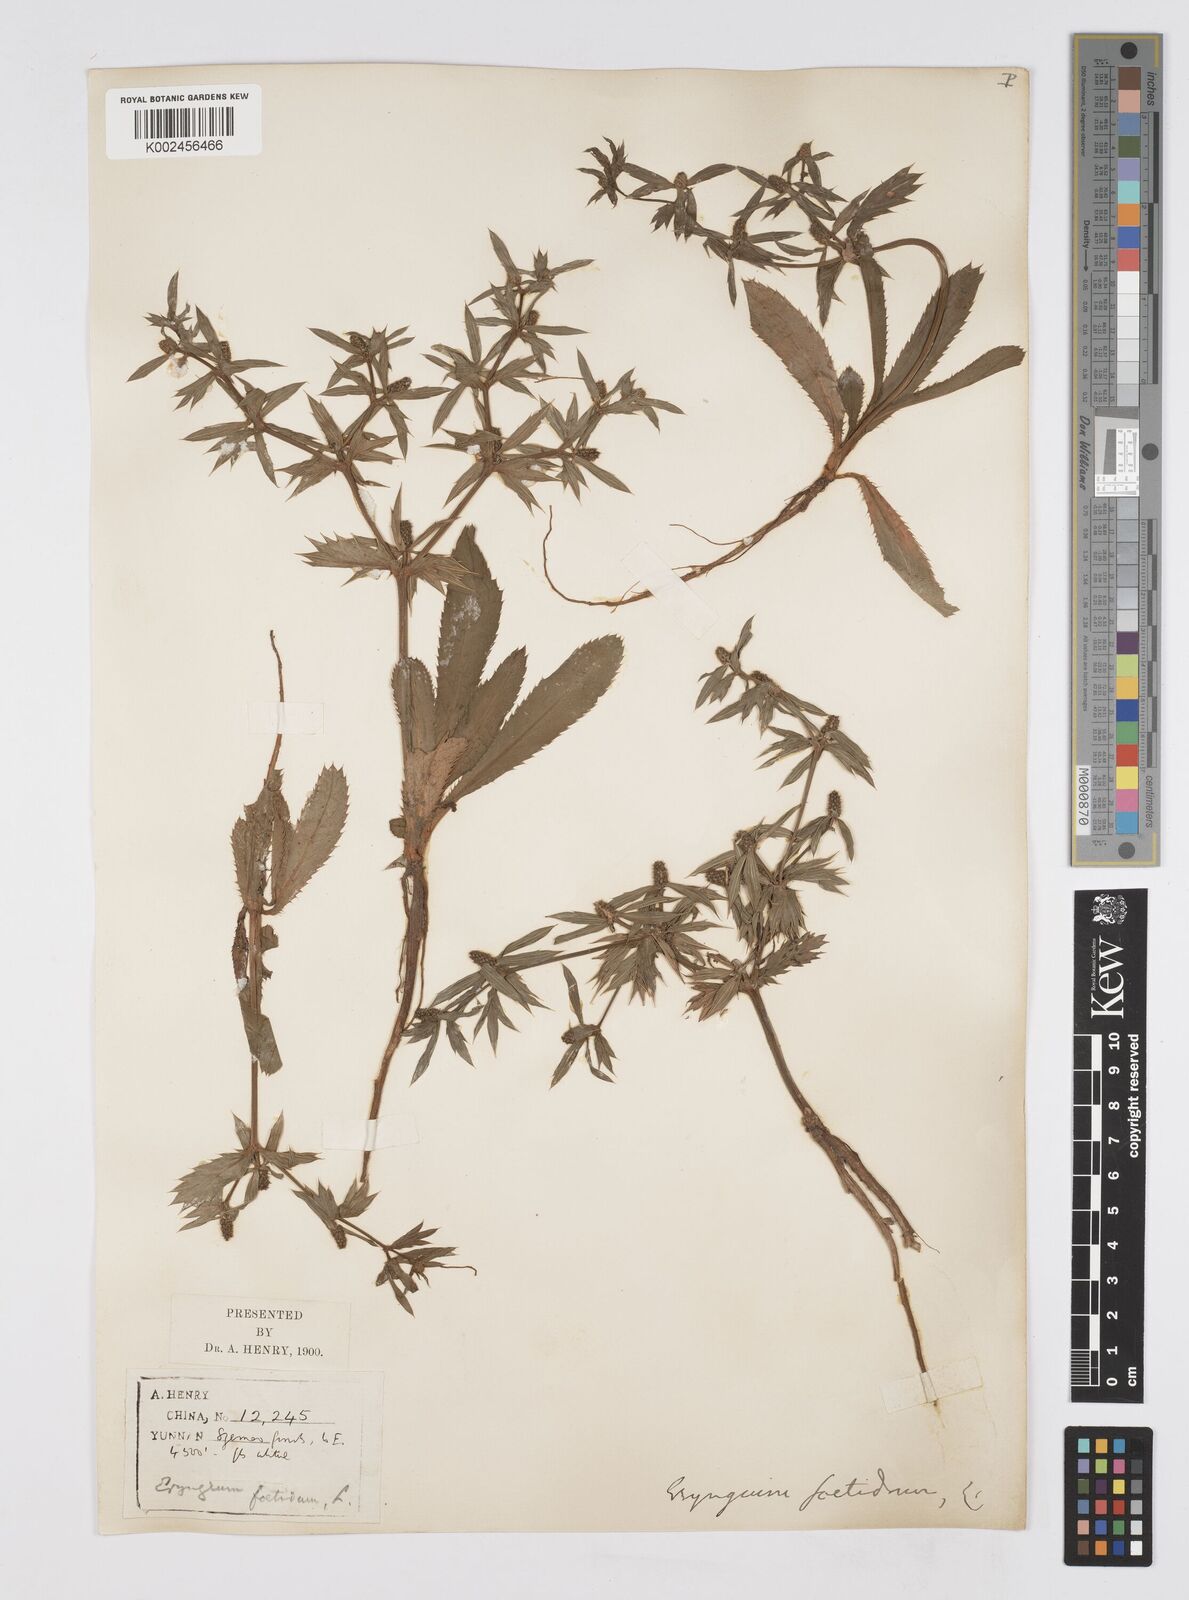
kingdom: Plantae
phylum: Tracheophyta
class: Magnoliopsida
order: Apiales
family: Apiaceae
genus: Eryngium
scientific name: Eryngium foetidum
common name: Fitweed
